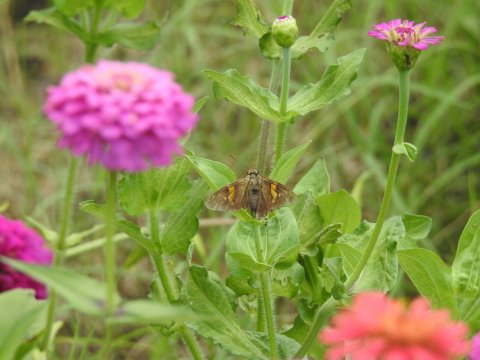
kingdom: Animalia
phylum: Arthropoda
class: Insecta
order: Lepidoptera
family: Hesperiidae
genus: Epargyreus
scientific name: Epargyreus clarus
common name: Silver-spotted Skipper
